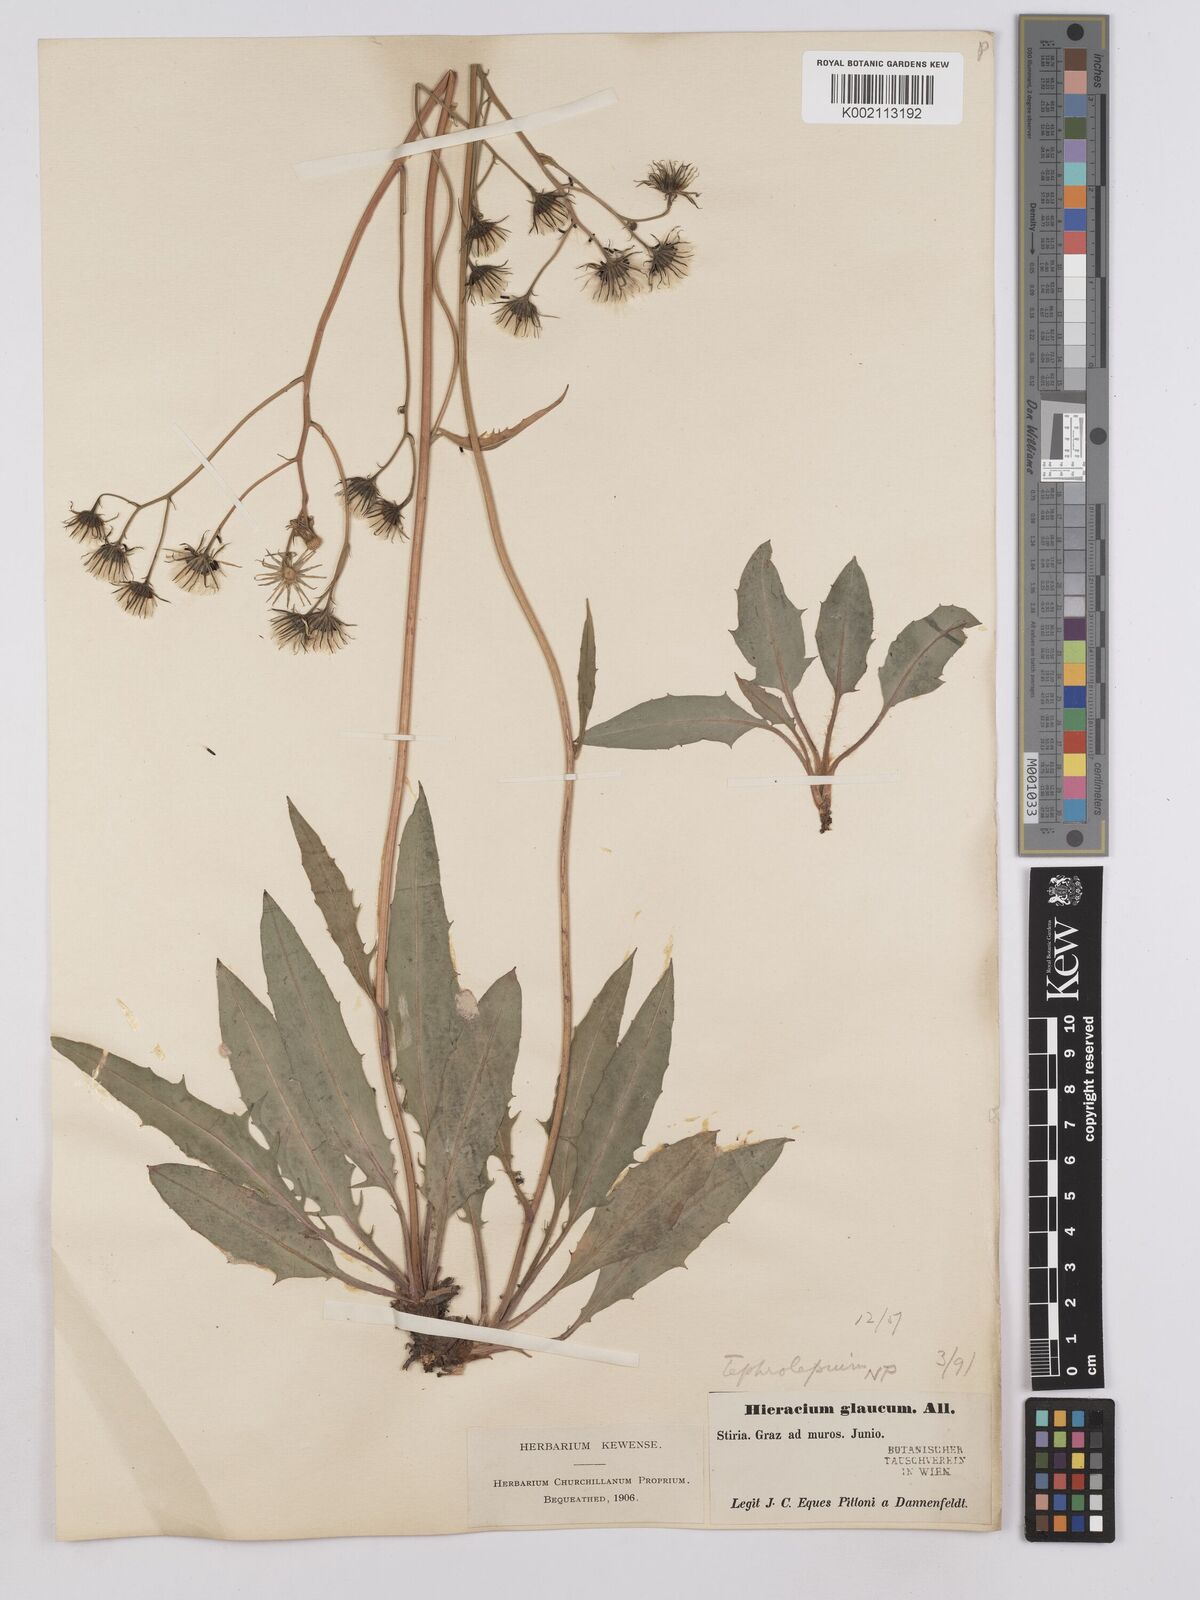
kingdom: Plantae
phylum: Tracheophyta
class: Magnoliopsida
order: Asterales
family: Asteraceae
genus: Crepis
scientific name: Crepis blattarioides
